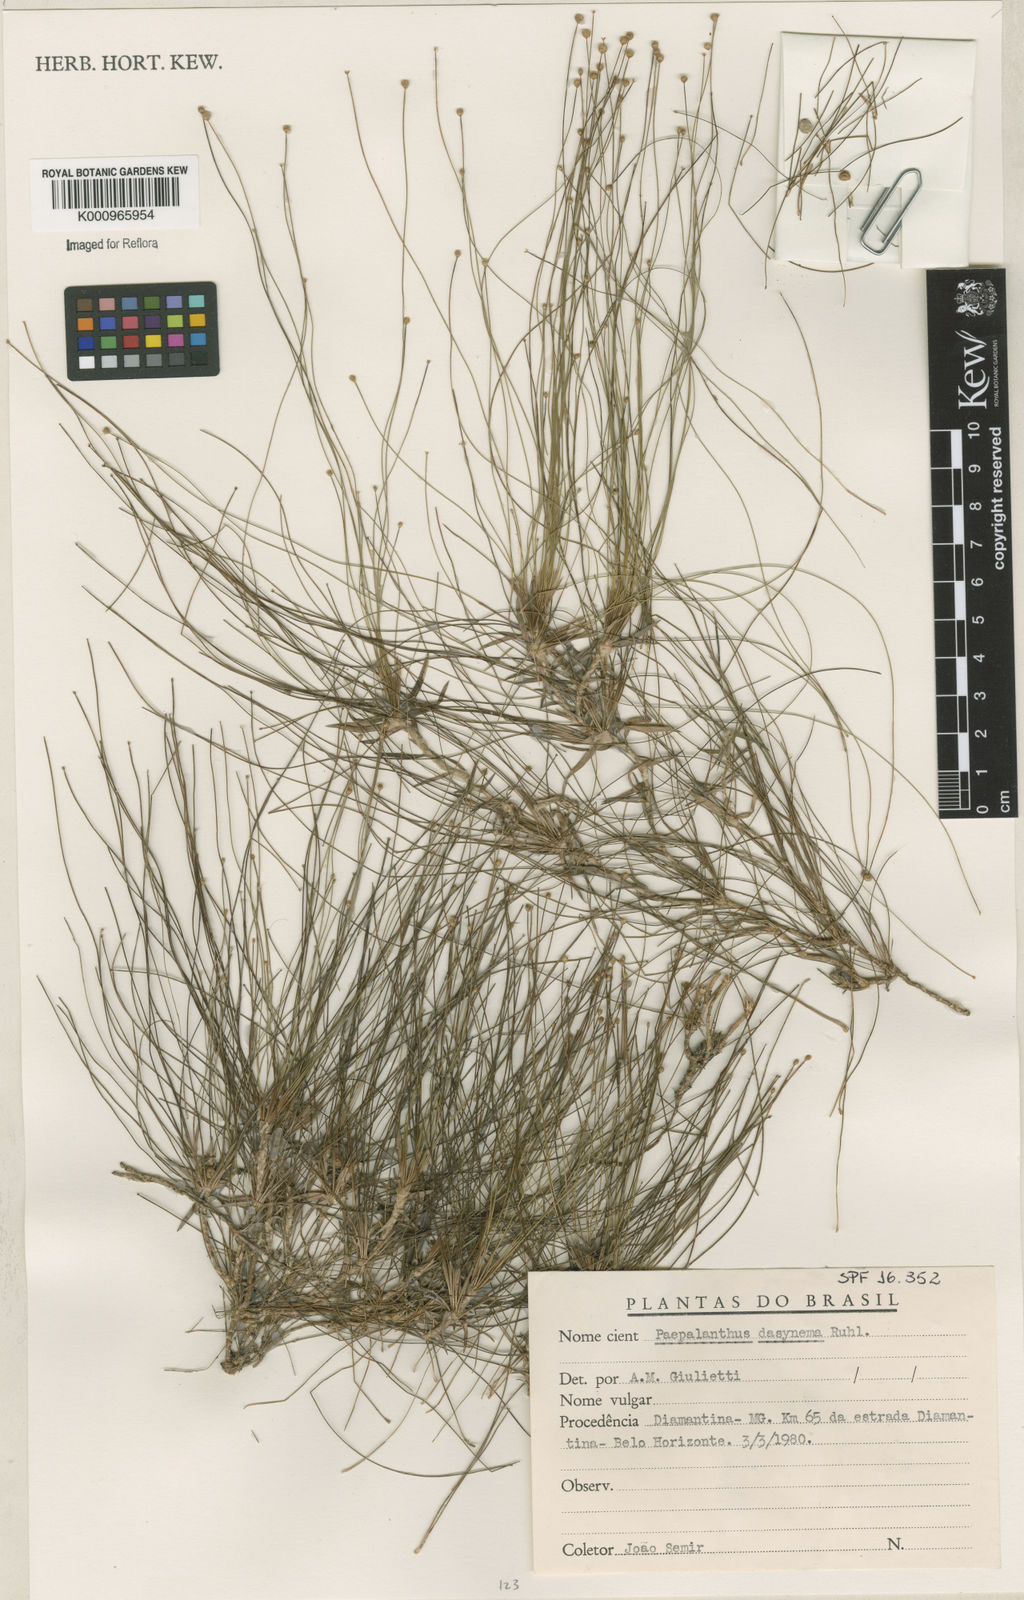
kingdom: Plantae
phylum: Tracheophyta
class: Liliopsida
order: Poales
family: Eriocaulaceae
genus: Paepalanthus
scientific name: Paepalanthus dasynema
